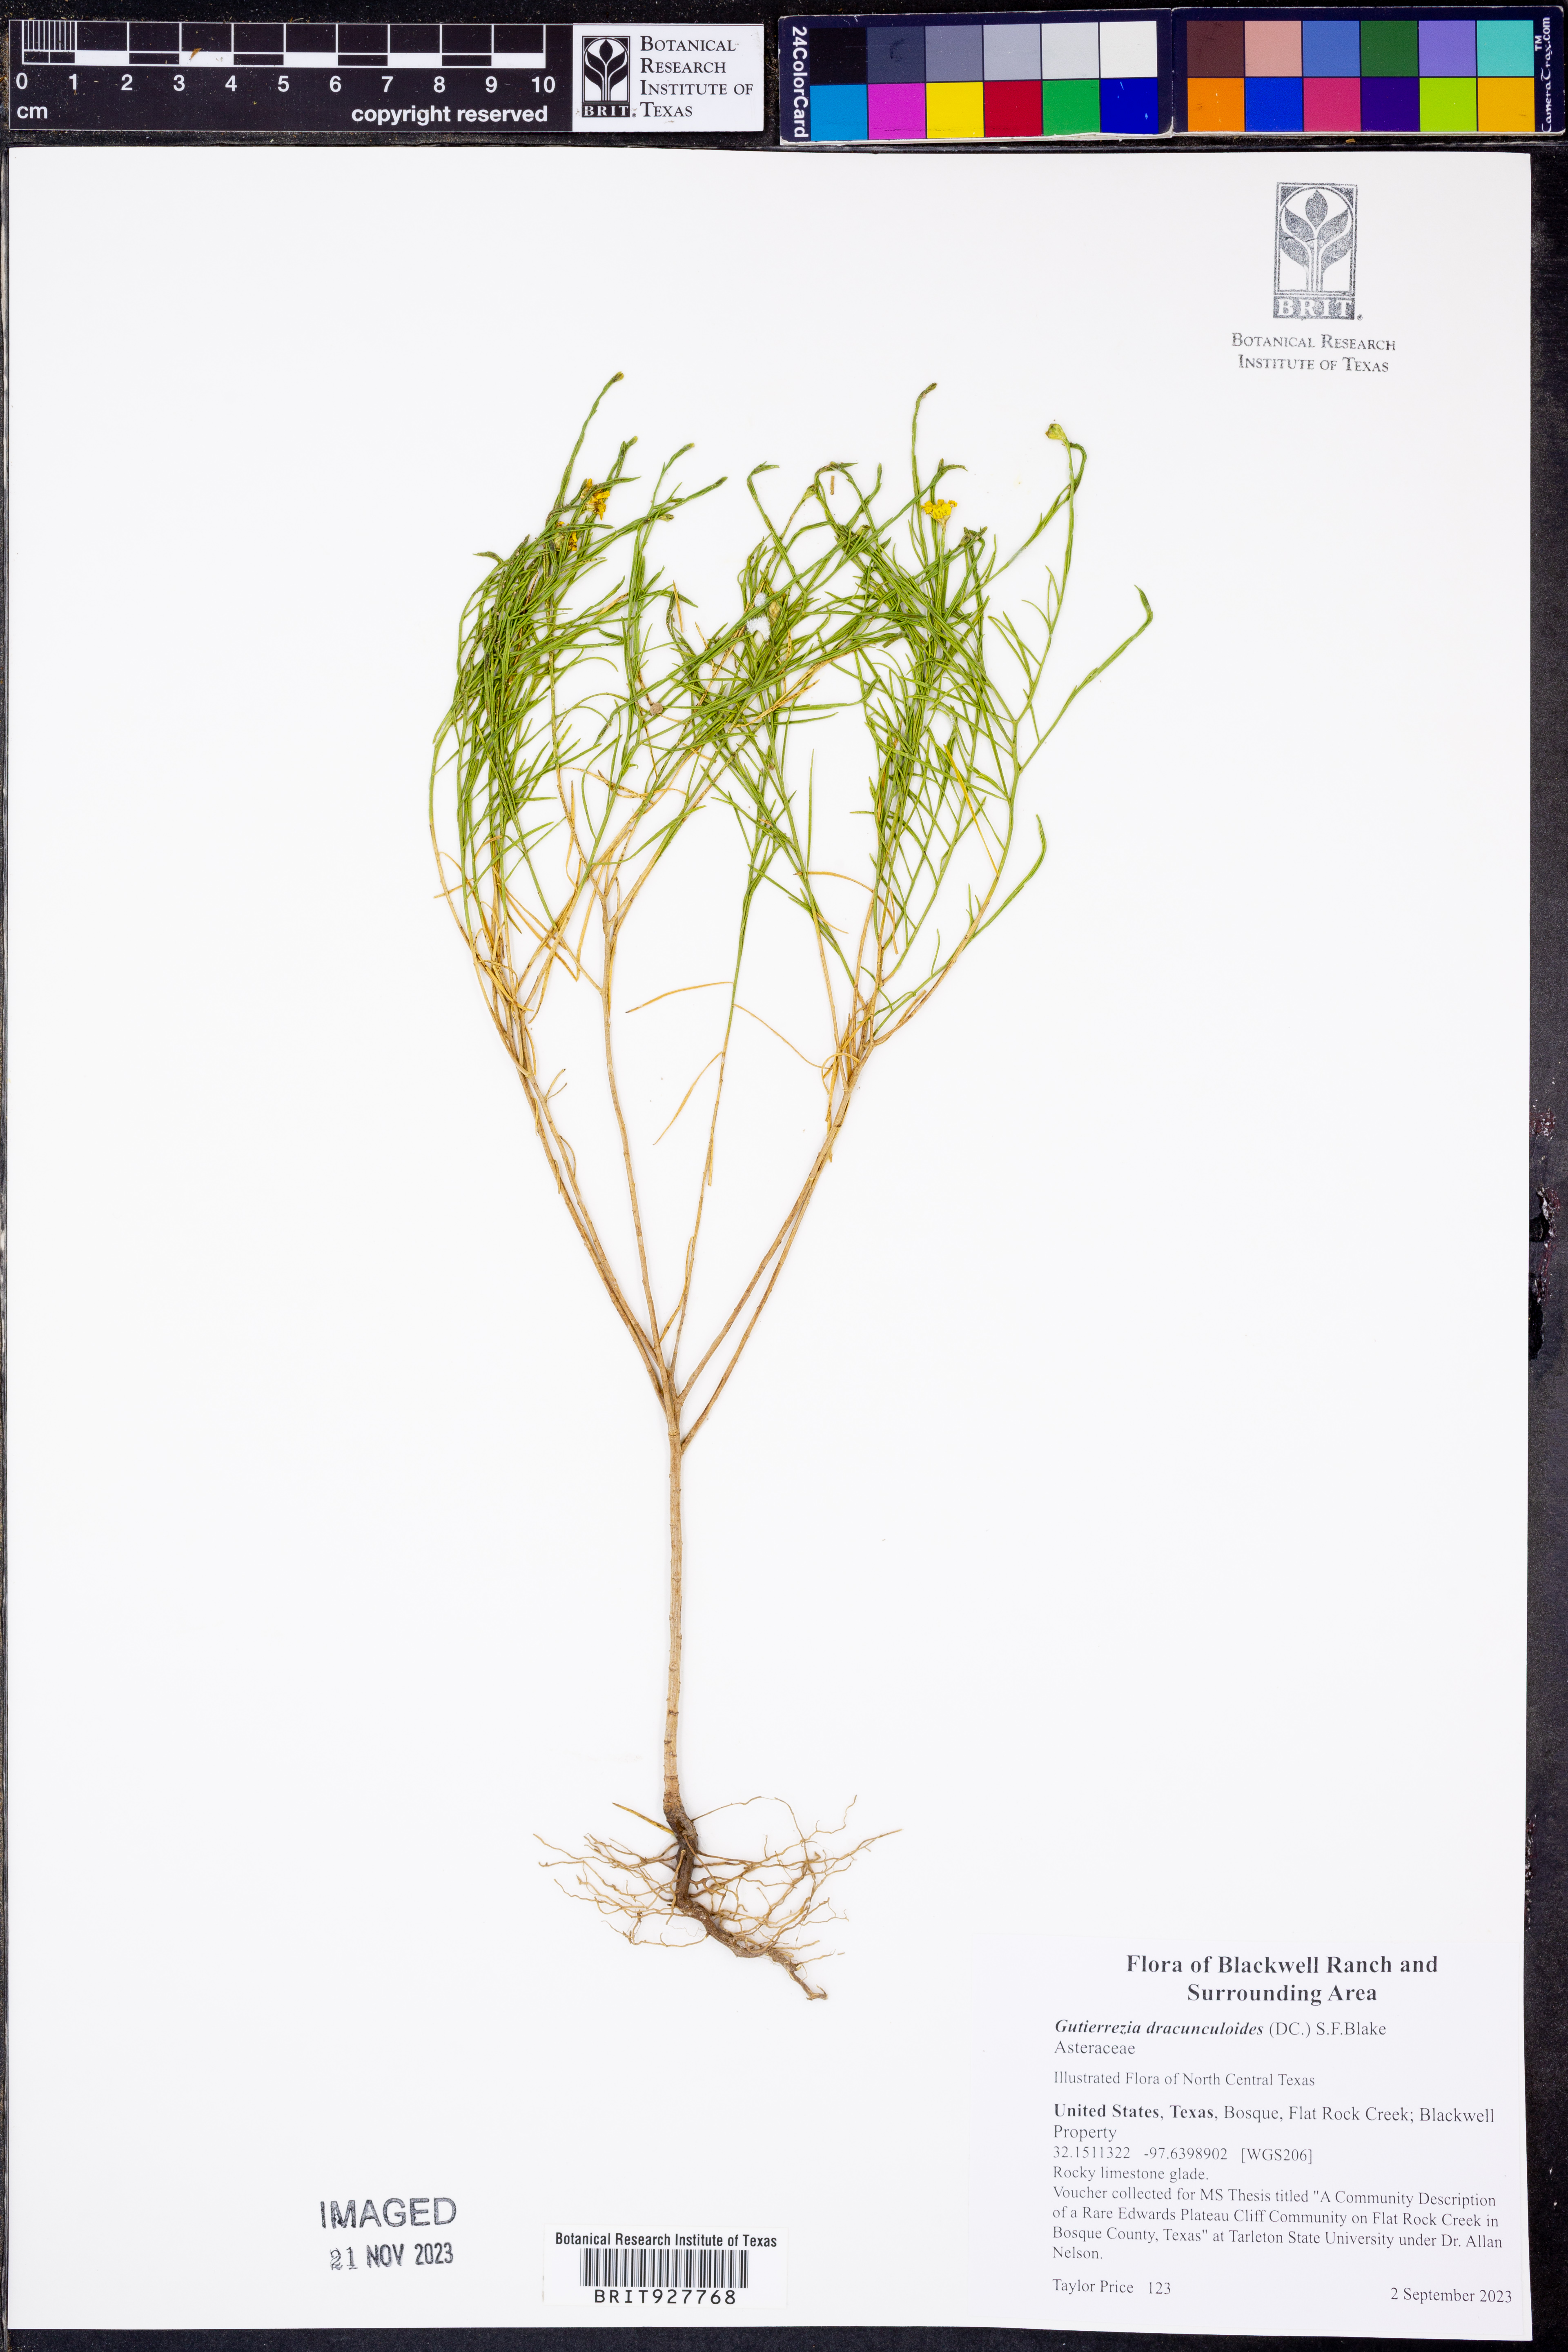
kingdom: Plantae
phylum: Tracheophyta
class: Magnoliopsida
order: Asterales
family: Asteraceae
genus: Amphiachyris
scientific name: Amphiachyris dracunculoides
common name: Broomweed
